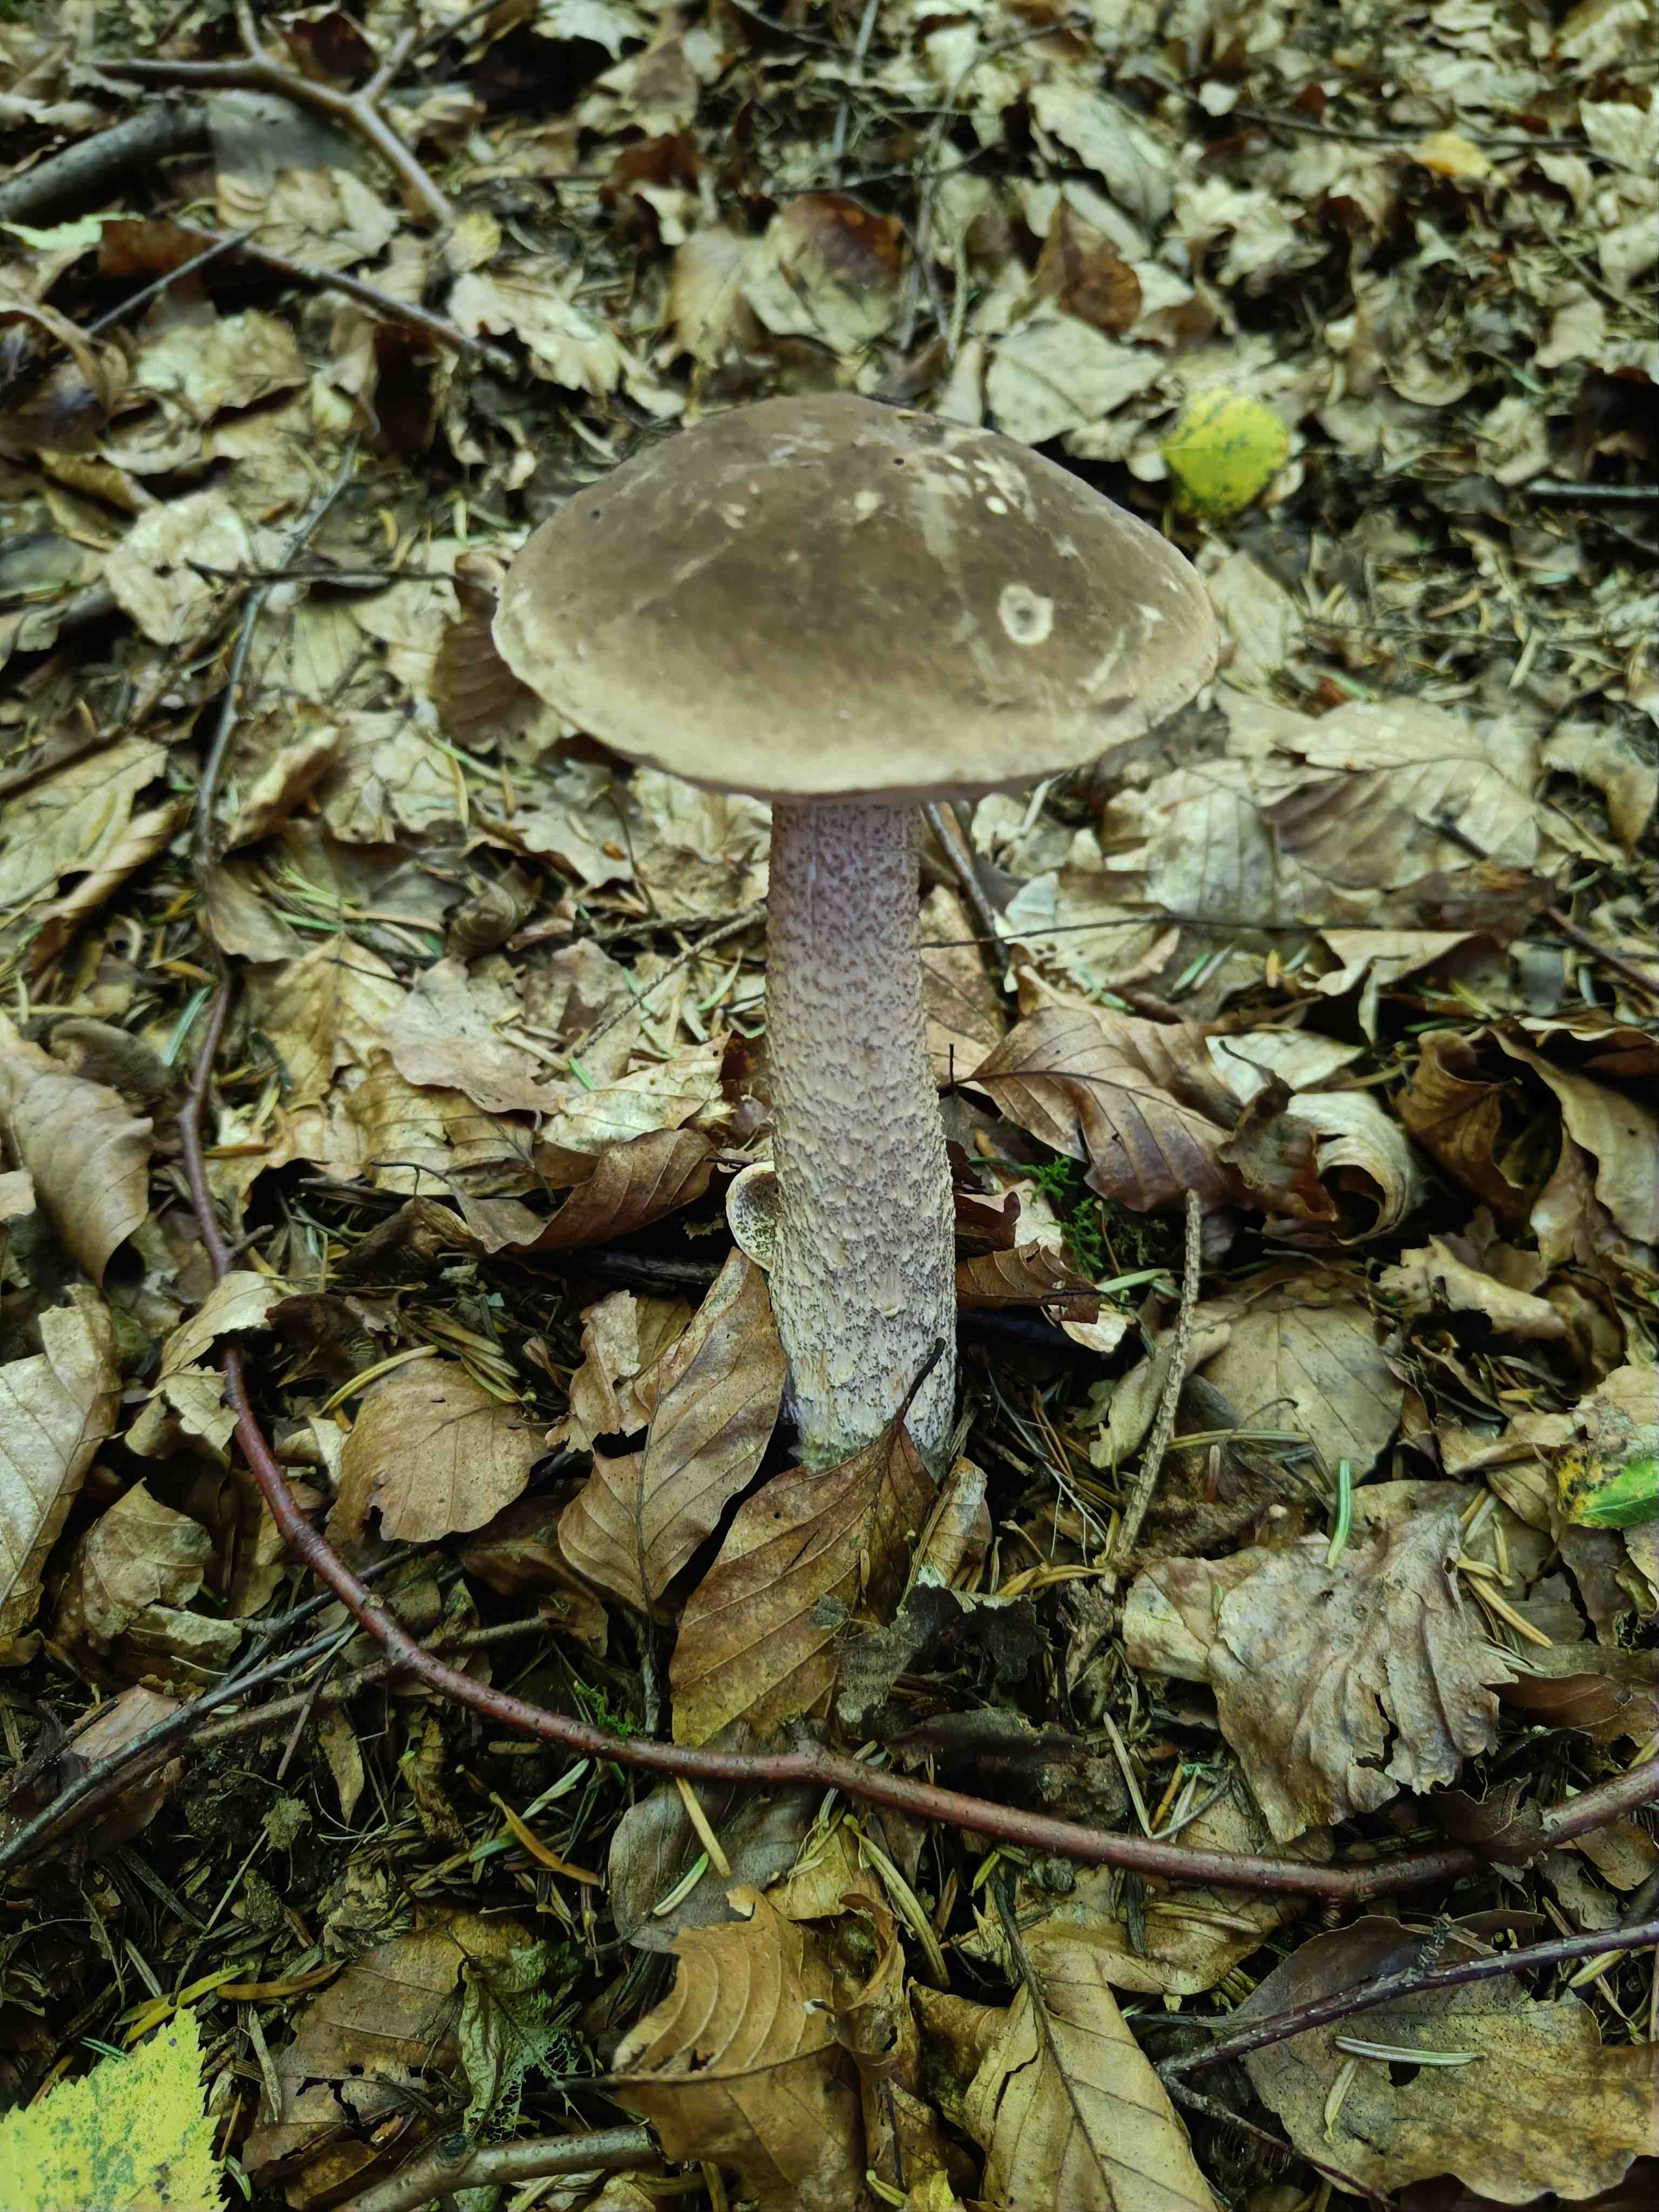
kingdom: Fungi
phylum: Basidiomycota
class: Agaricomycetes
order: Boletales
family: Boletaceae
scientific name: Boletaceae
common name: rørhatfamilien
